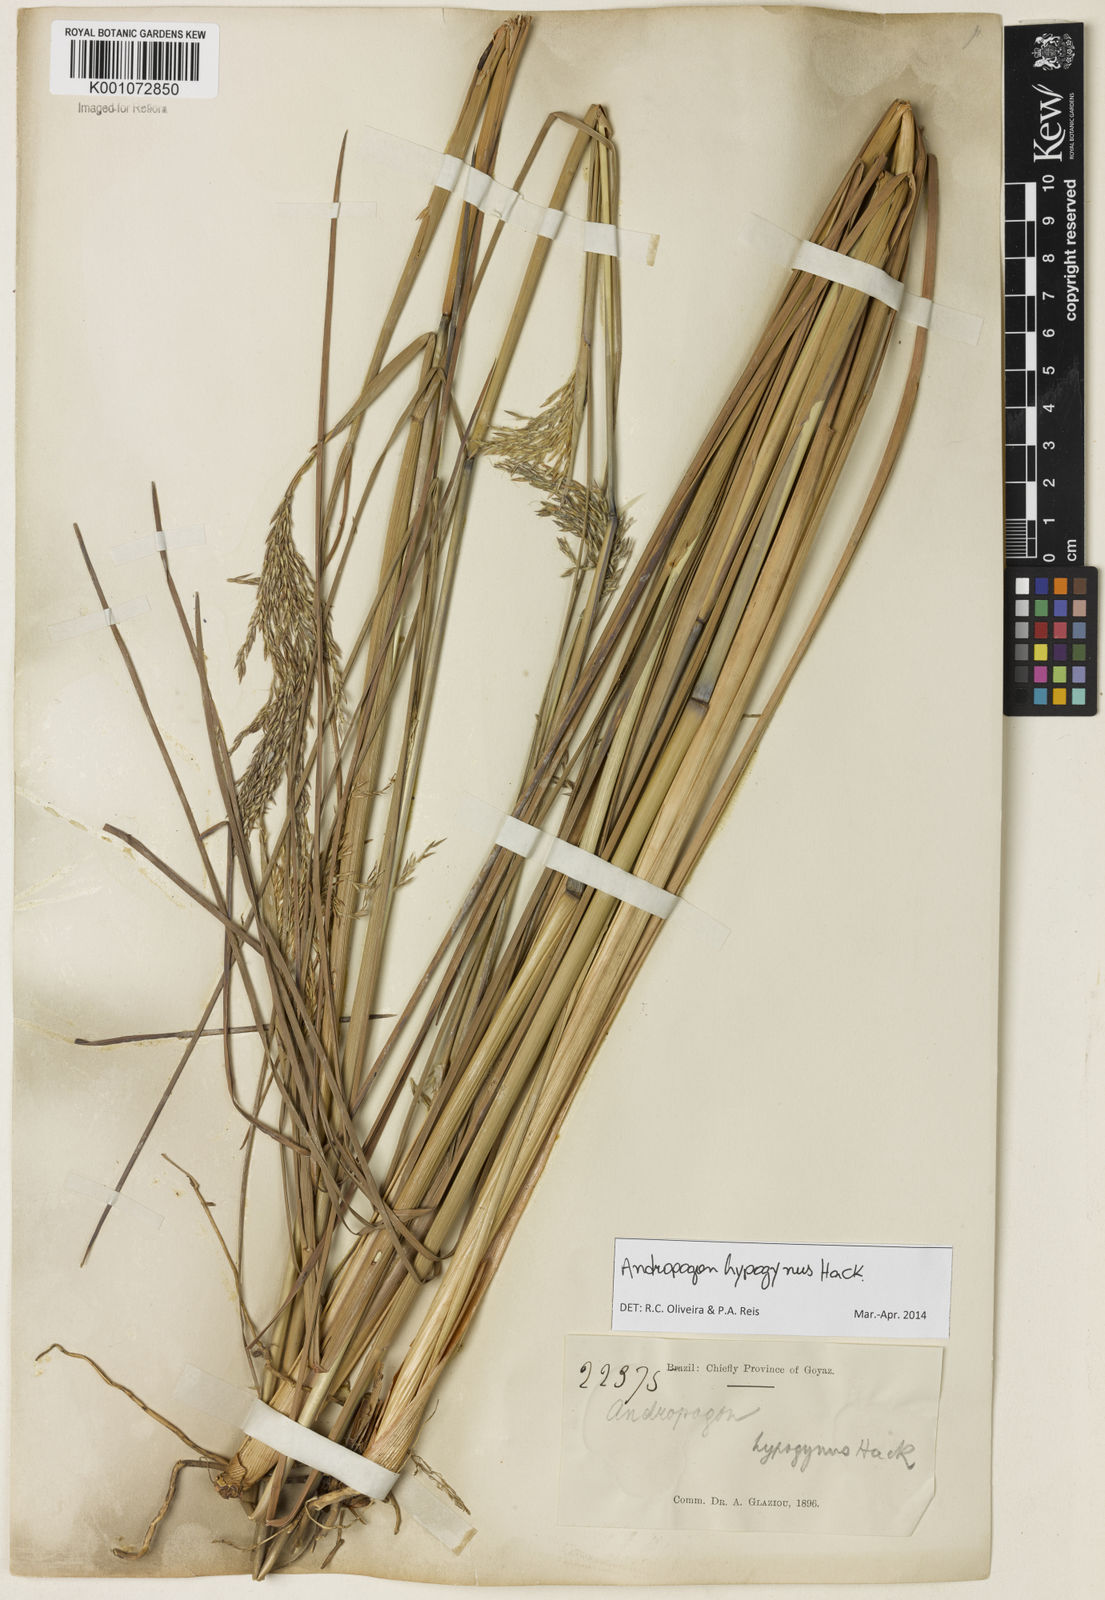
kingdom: Plantae
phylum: Tracheophyta
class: Liliopsida
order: Poales
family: Poaceae
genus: Andropogon
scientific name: Andropogon hypogynus
